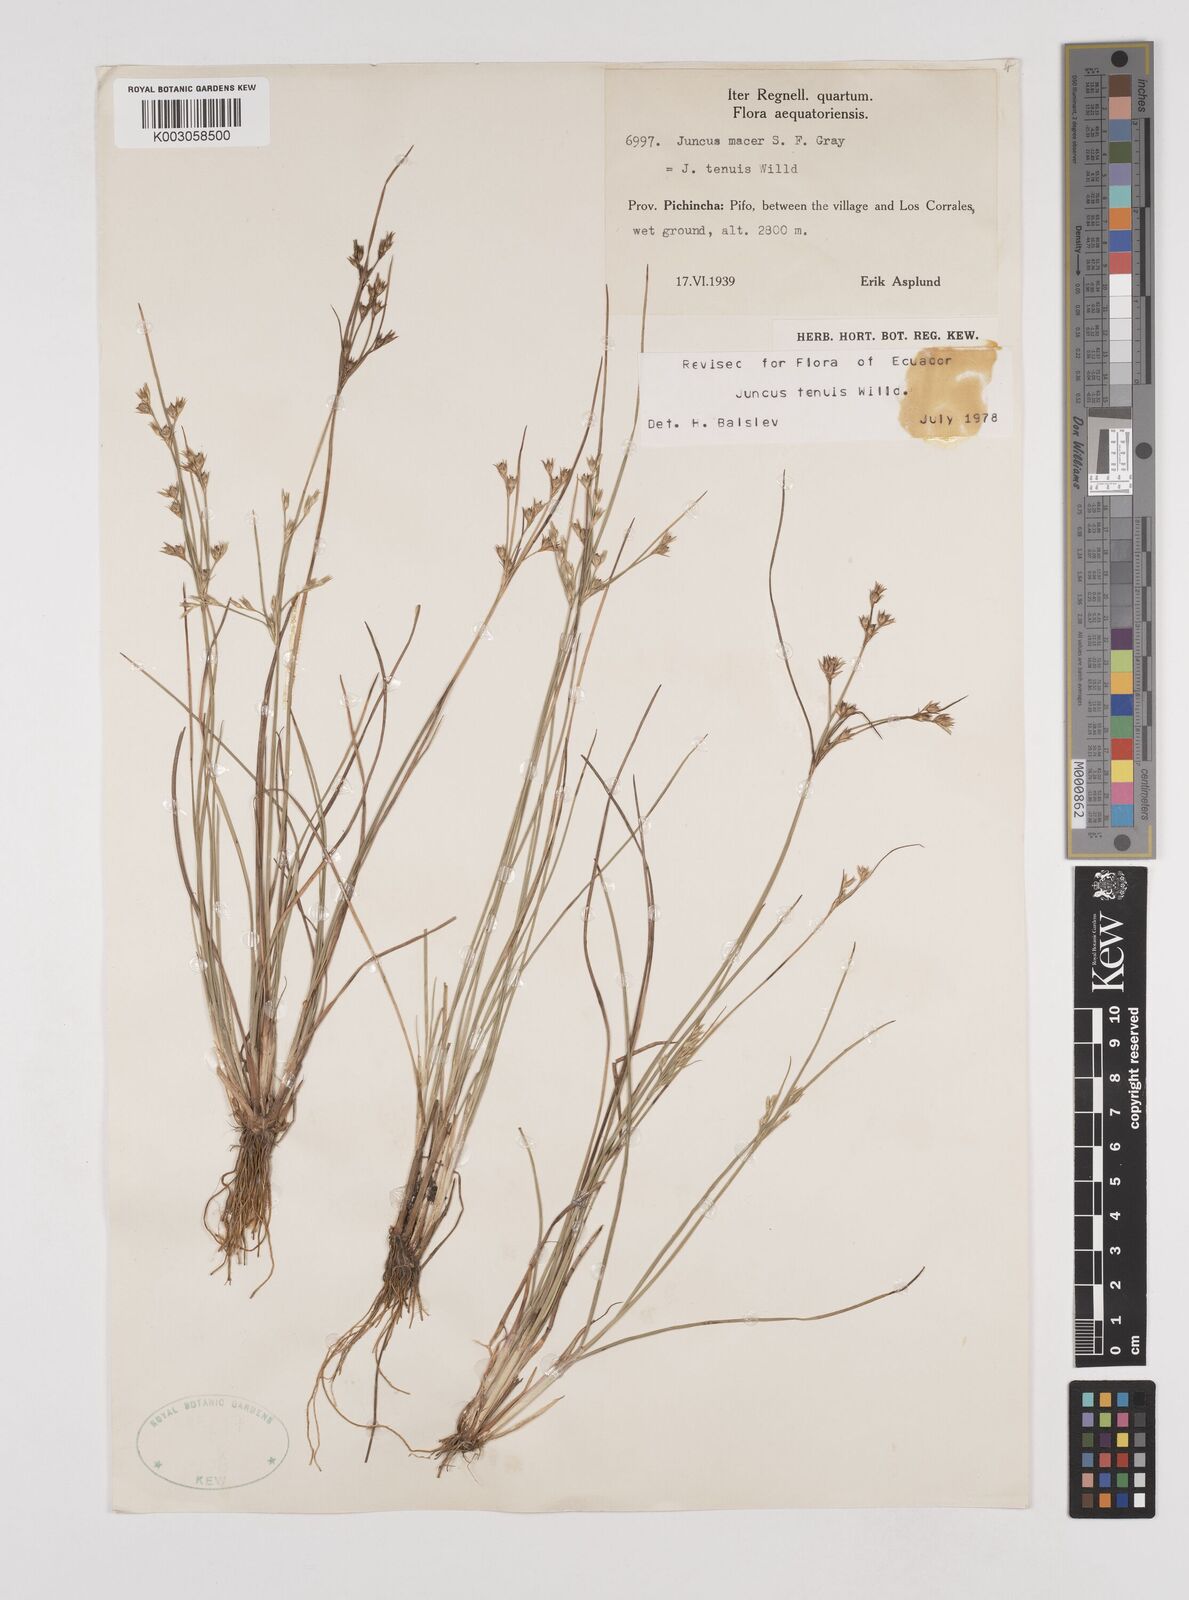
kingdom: Plantae
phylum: Tracheophyta
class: Liliopsida
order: Poales
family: Juncaceae
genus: Juncus
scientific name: Juncus tenuis
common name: Slender rush
